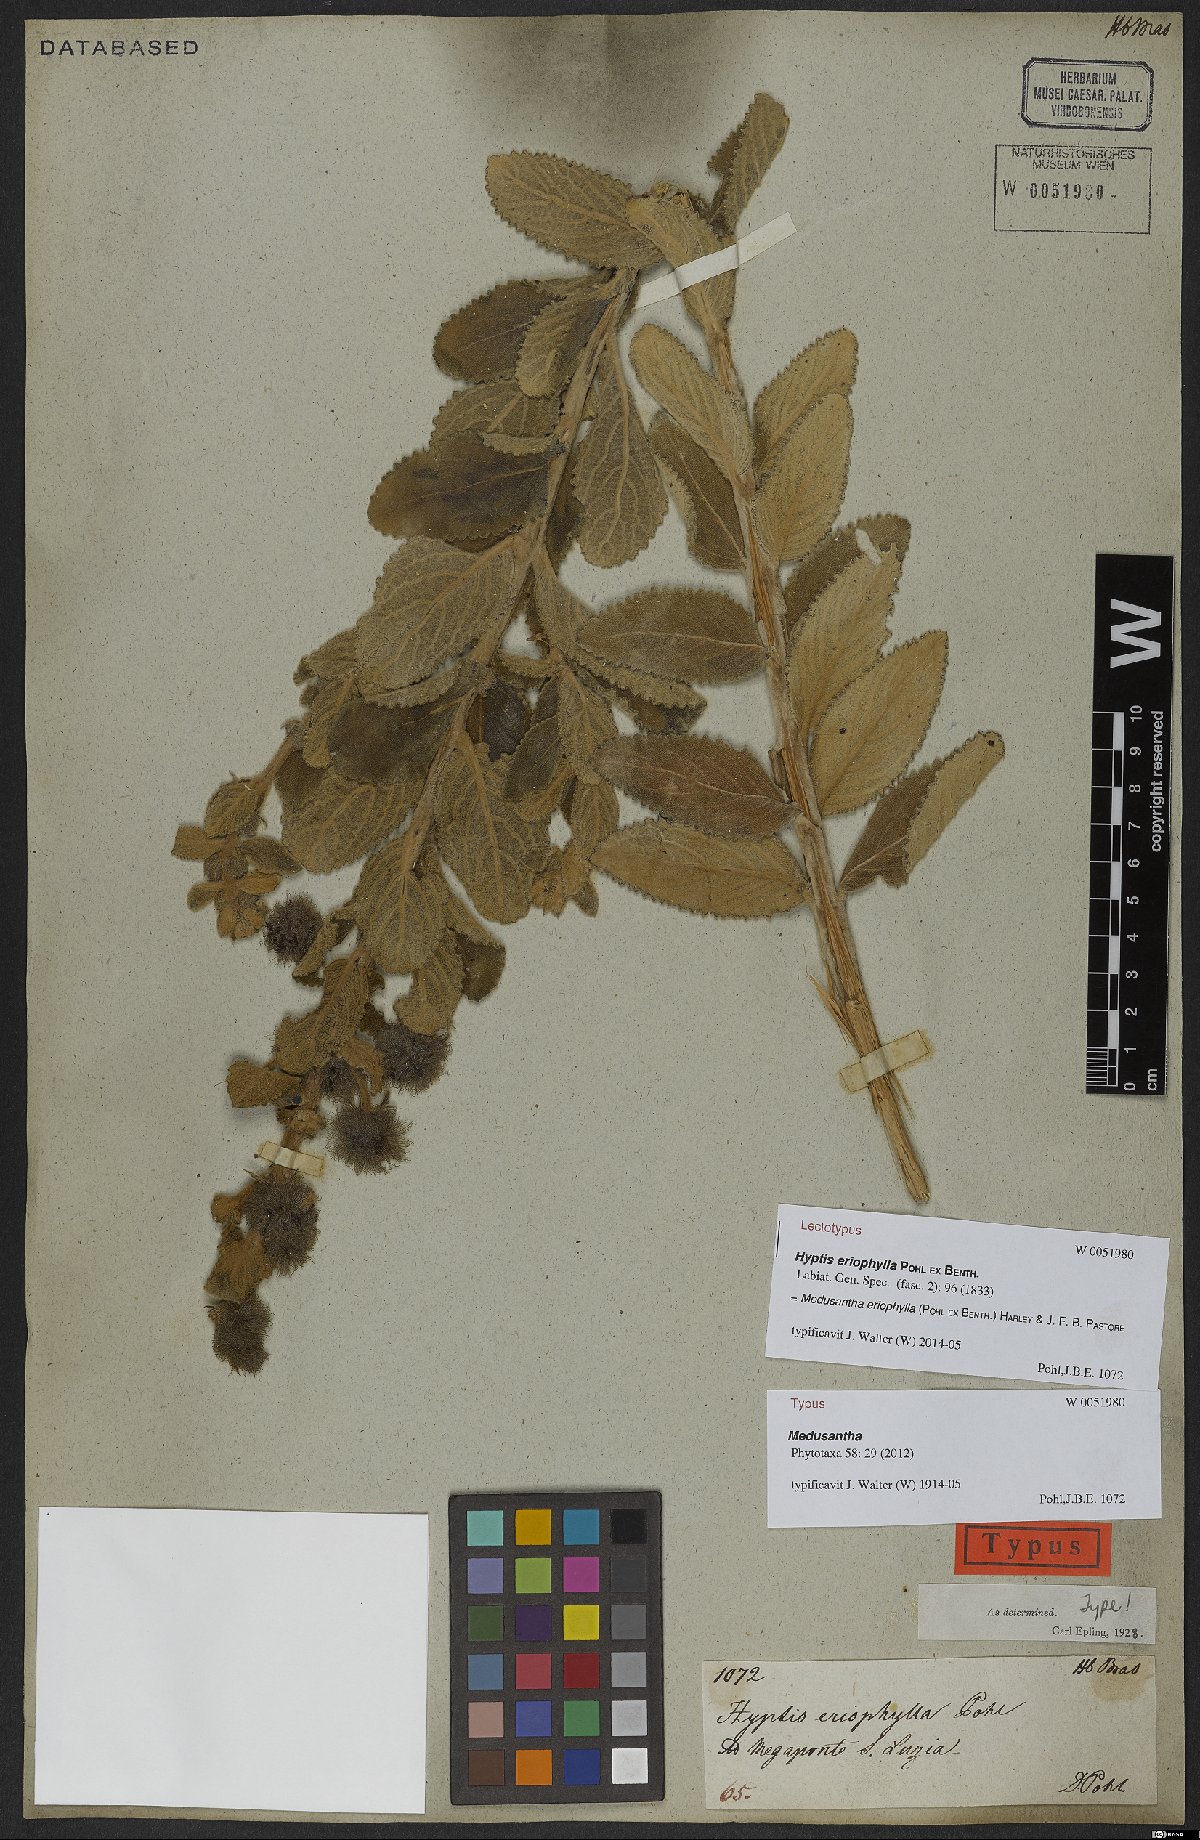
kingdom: Plantae
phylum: Tracheophyta
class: Magnoliopsida
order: Lamiales
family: Lamiaceae
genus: Medusantha
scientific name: Medusantha eriophylla
